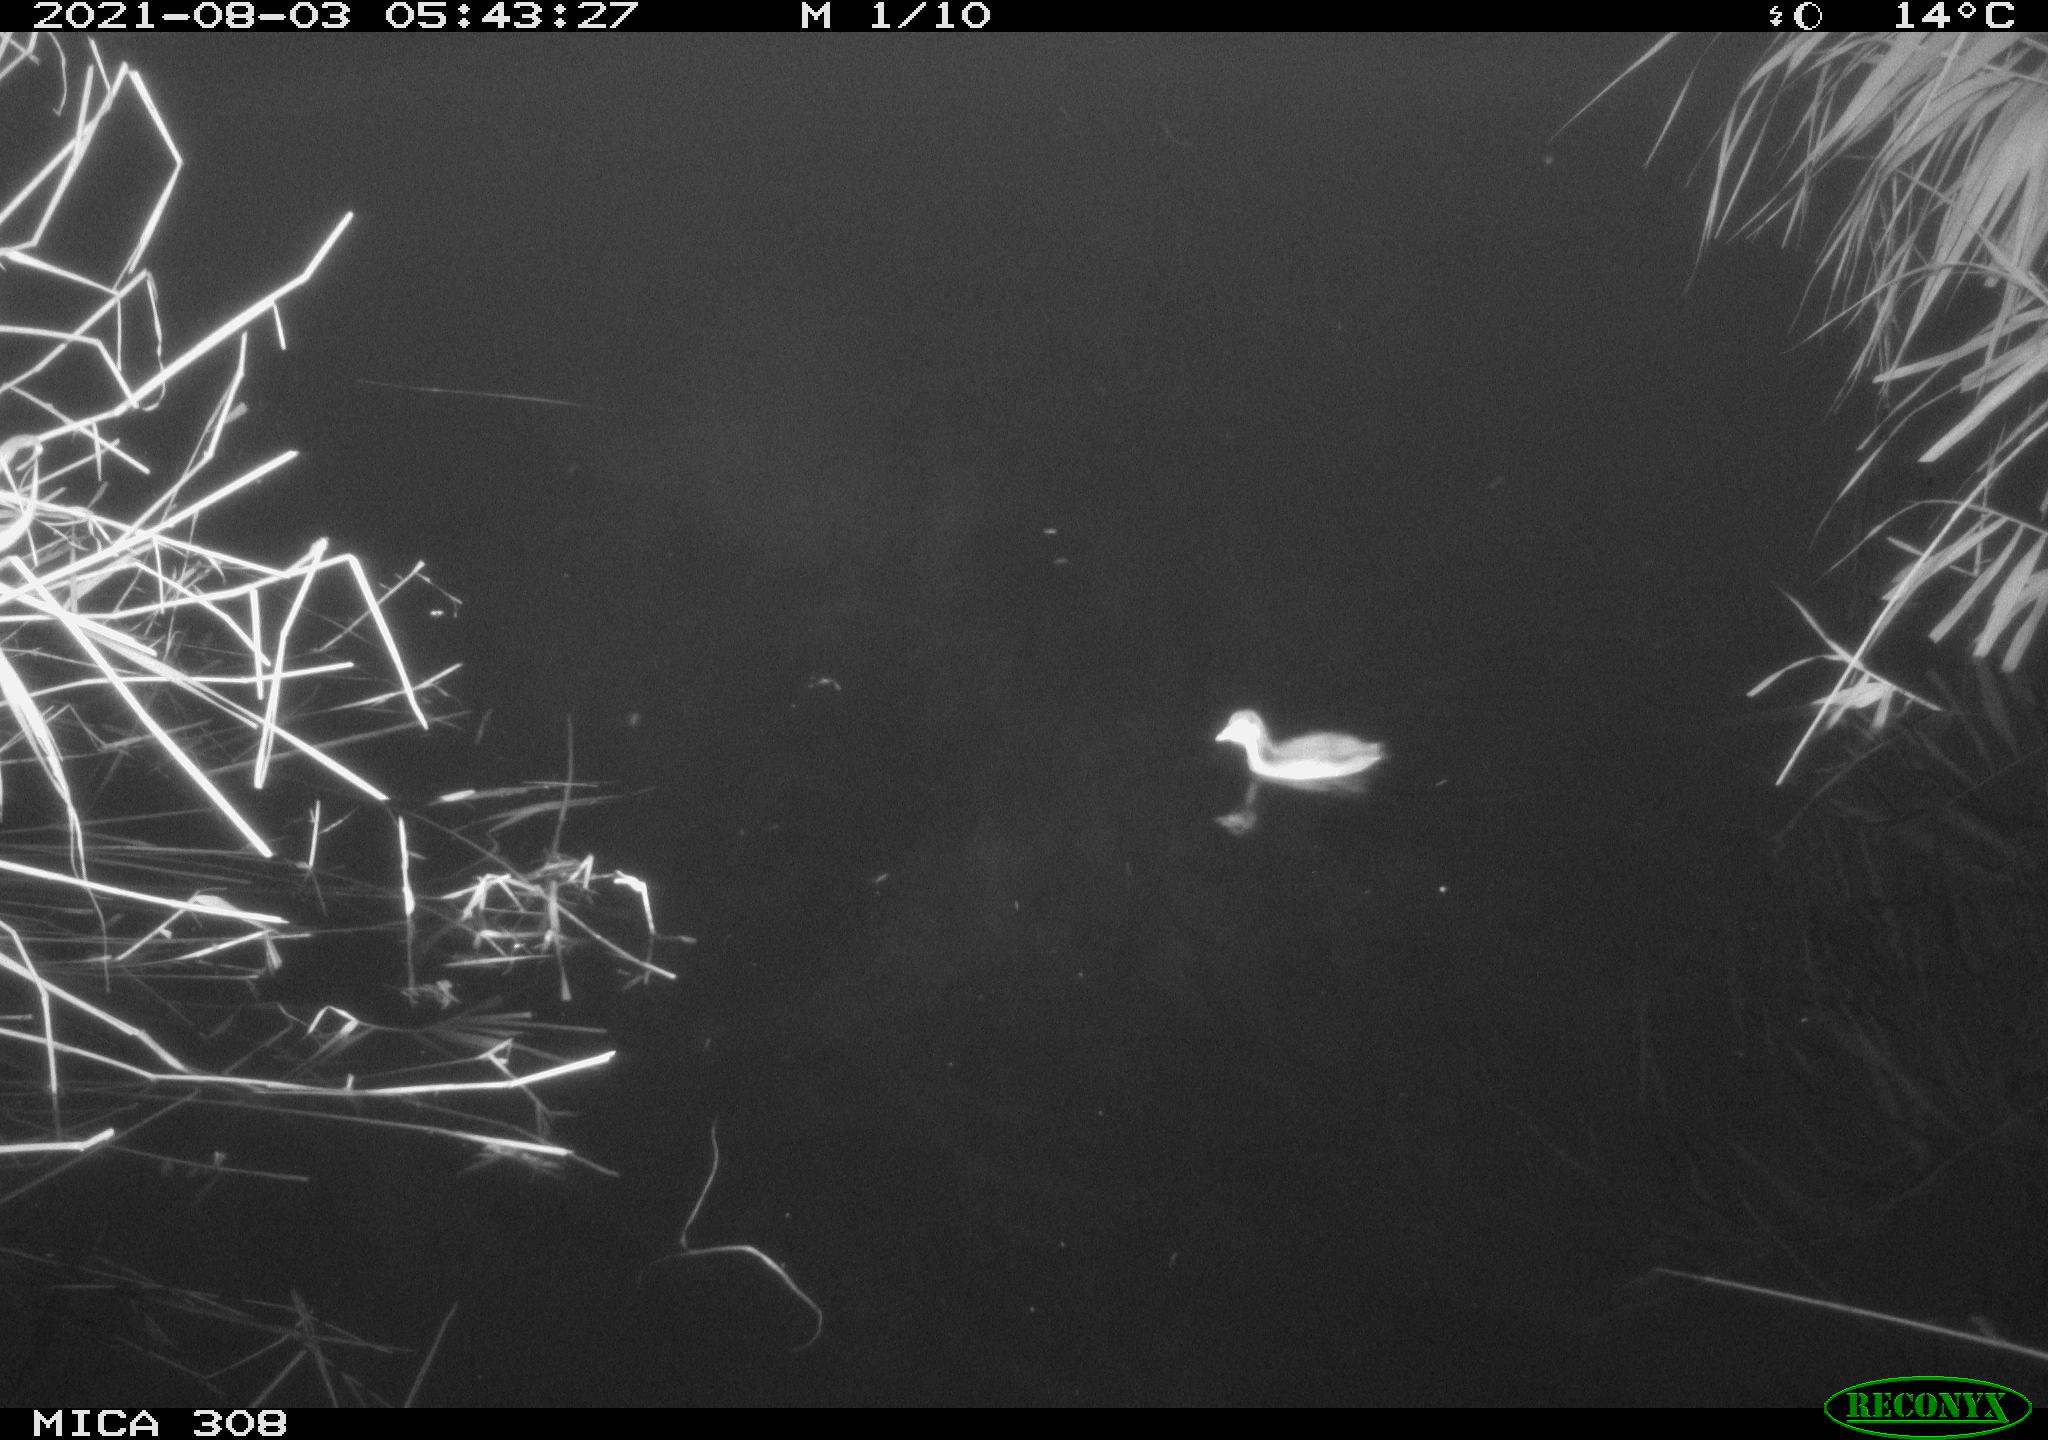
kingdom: Animalia
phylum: Chordata
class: Aves
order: Podicipediformes
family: Podicipedidae
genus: Tachybaptus
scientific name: Tachybaptus ruficollis
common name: Little grebe
